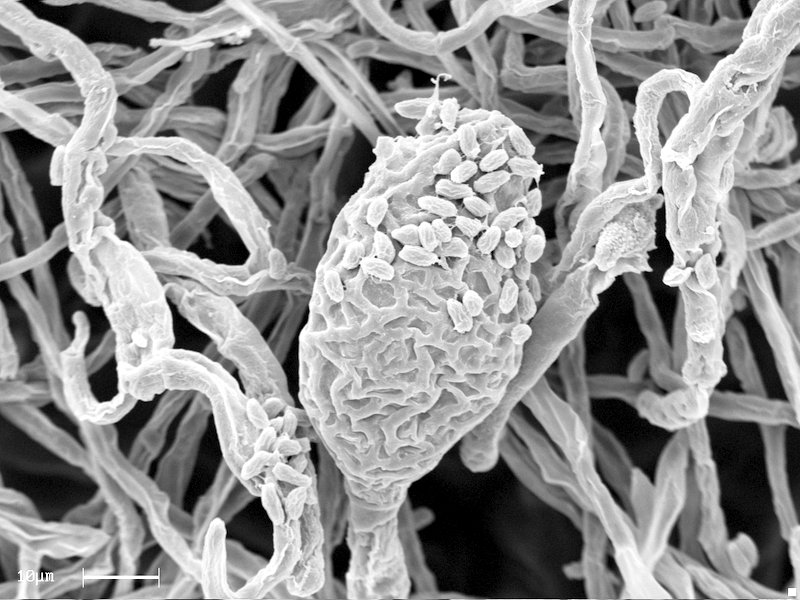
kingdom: Fungi
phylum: Ascomycota
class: Dothideomycetes
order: Pleosporales
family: Phaeosphaeriaceae
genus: Ampelomyces
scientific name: Ampelomyces quisqualis
